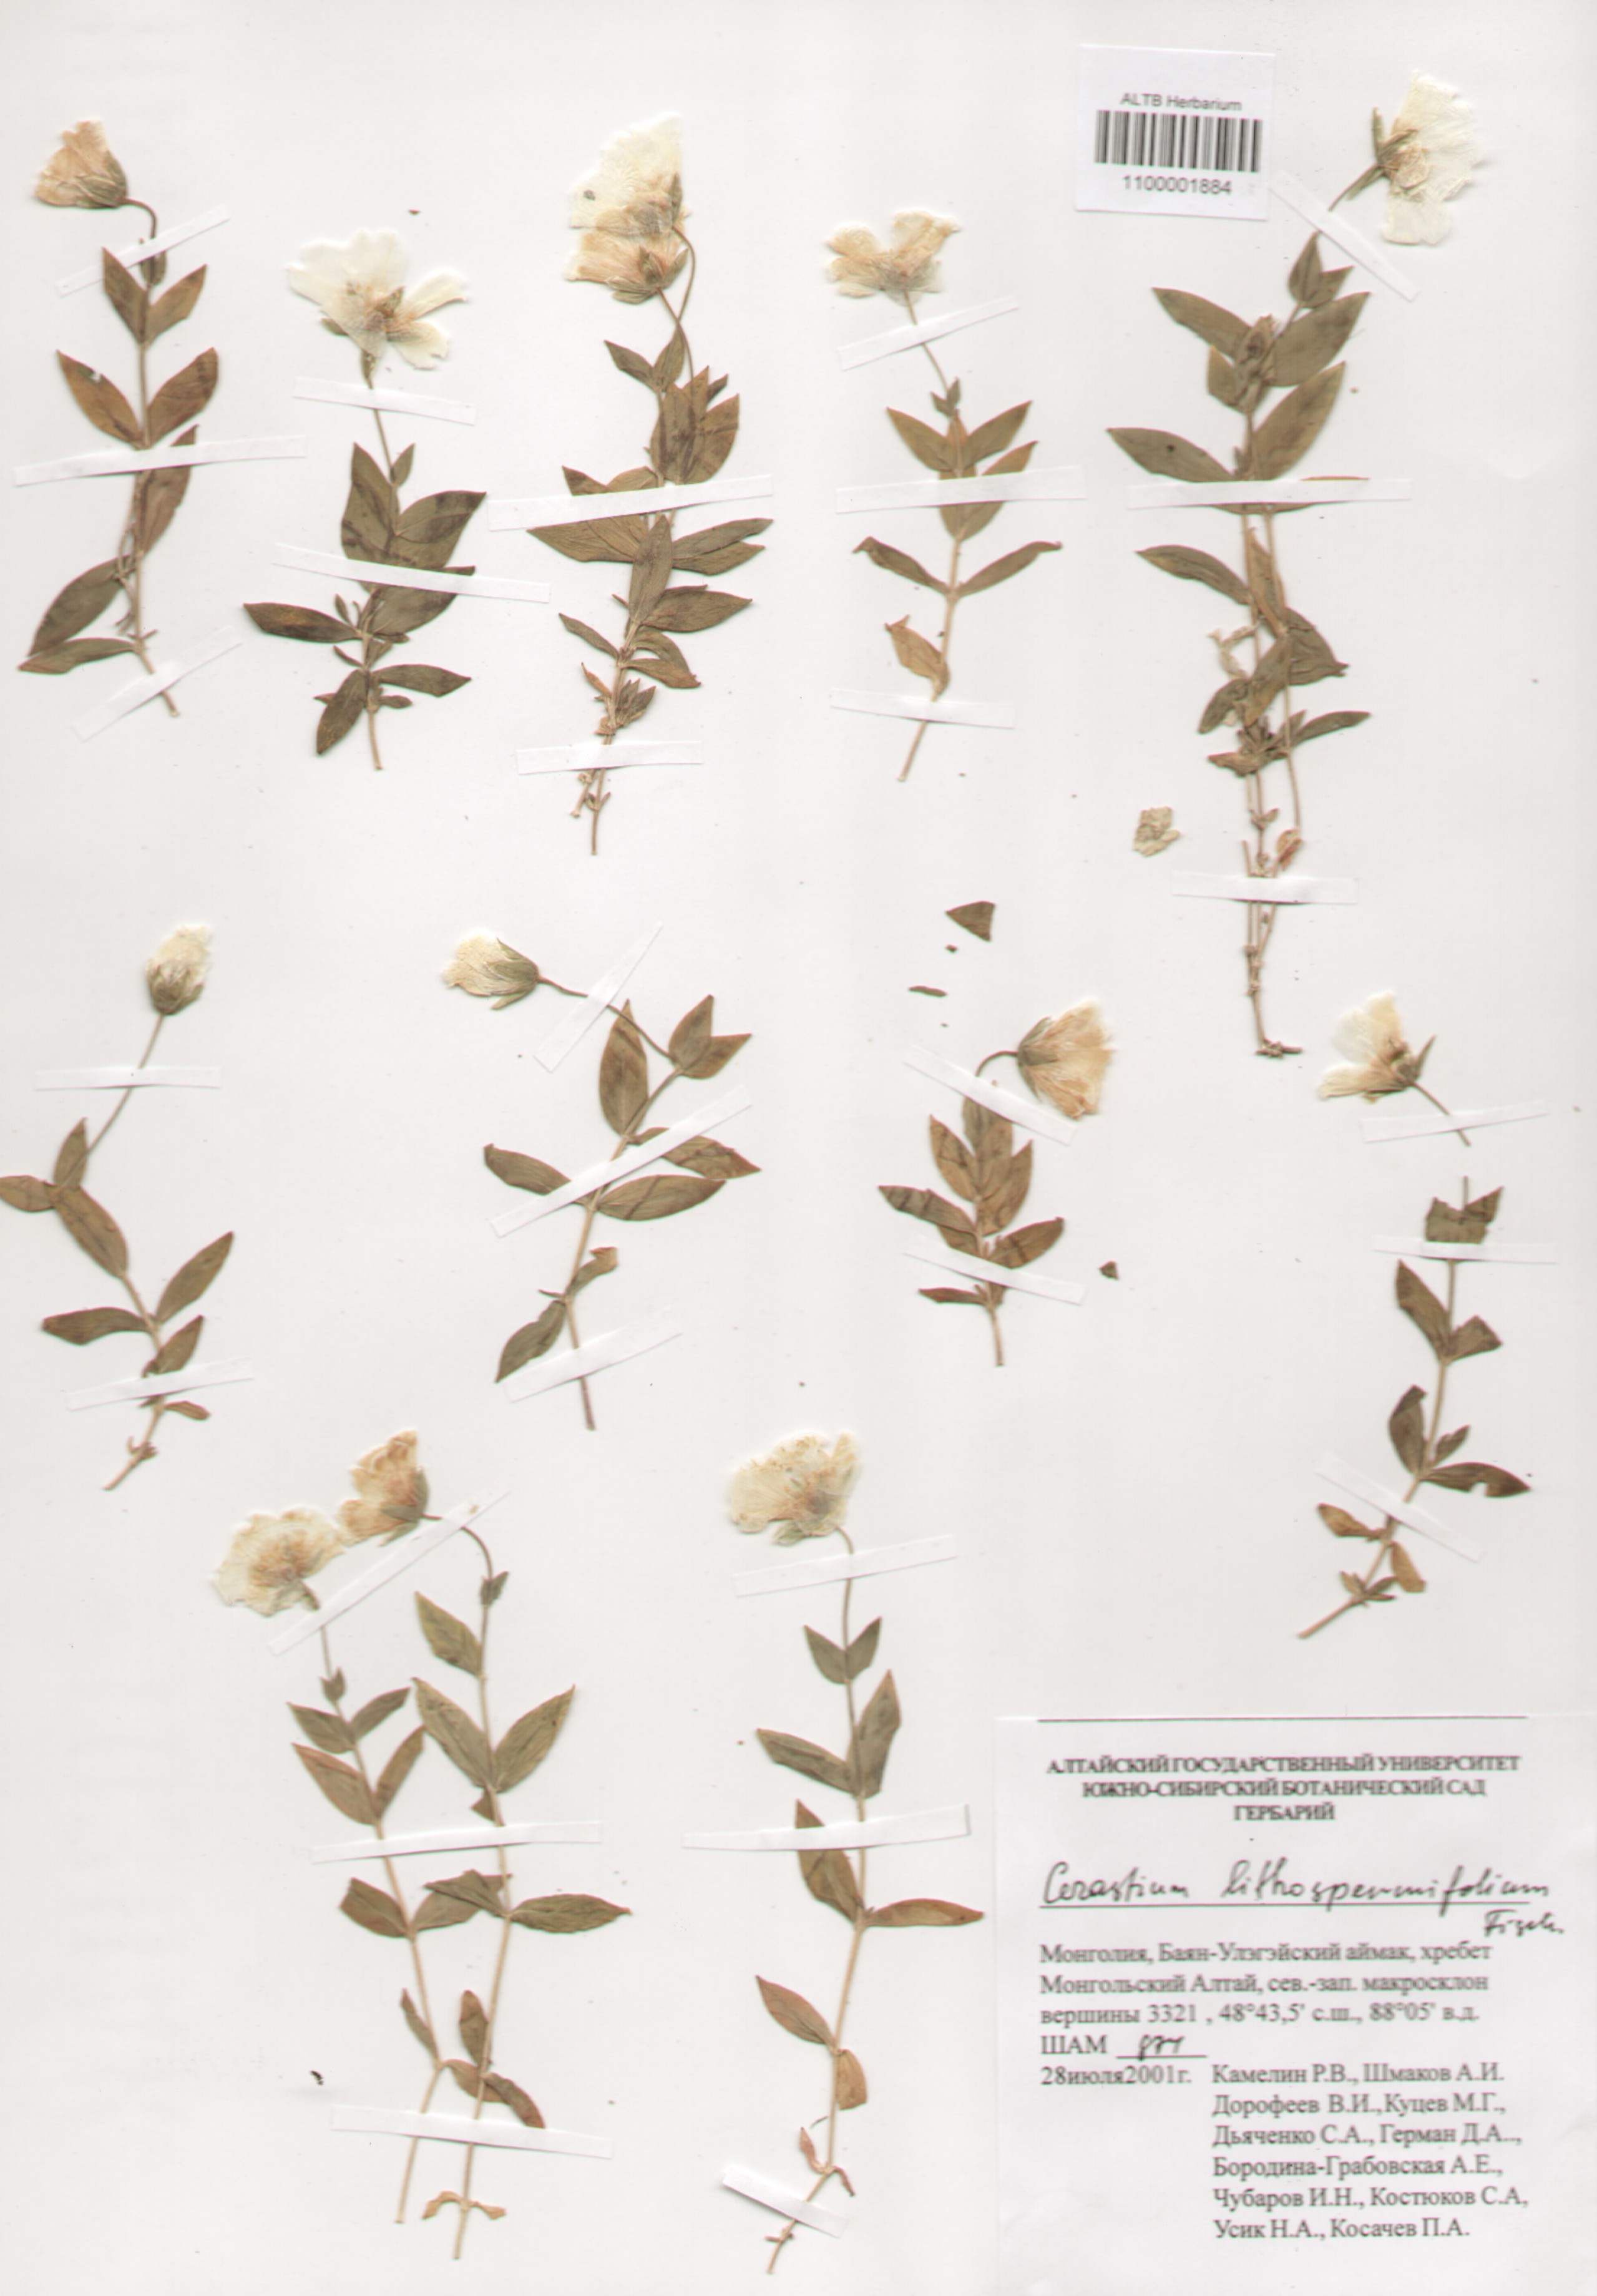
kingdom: Plantae
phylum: Tracheophyta
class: Magnoliopsida
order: Caryophyllales
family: Caryophyllaceae
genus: Cerastium
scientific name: Cerastium lithospermifolium
